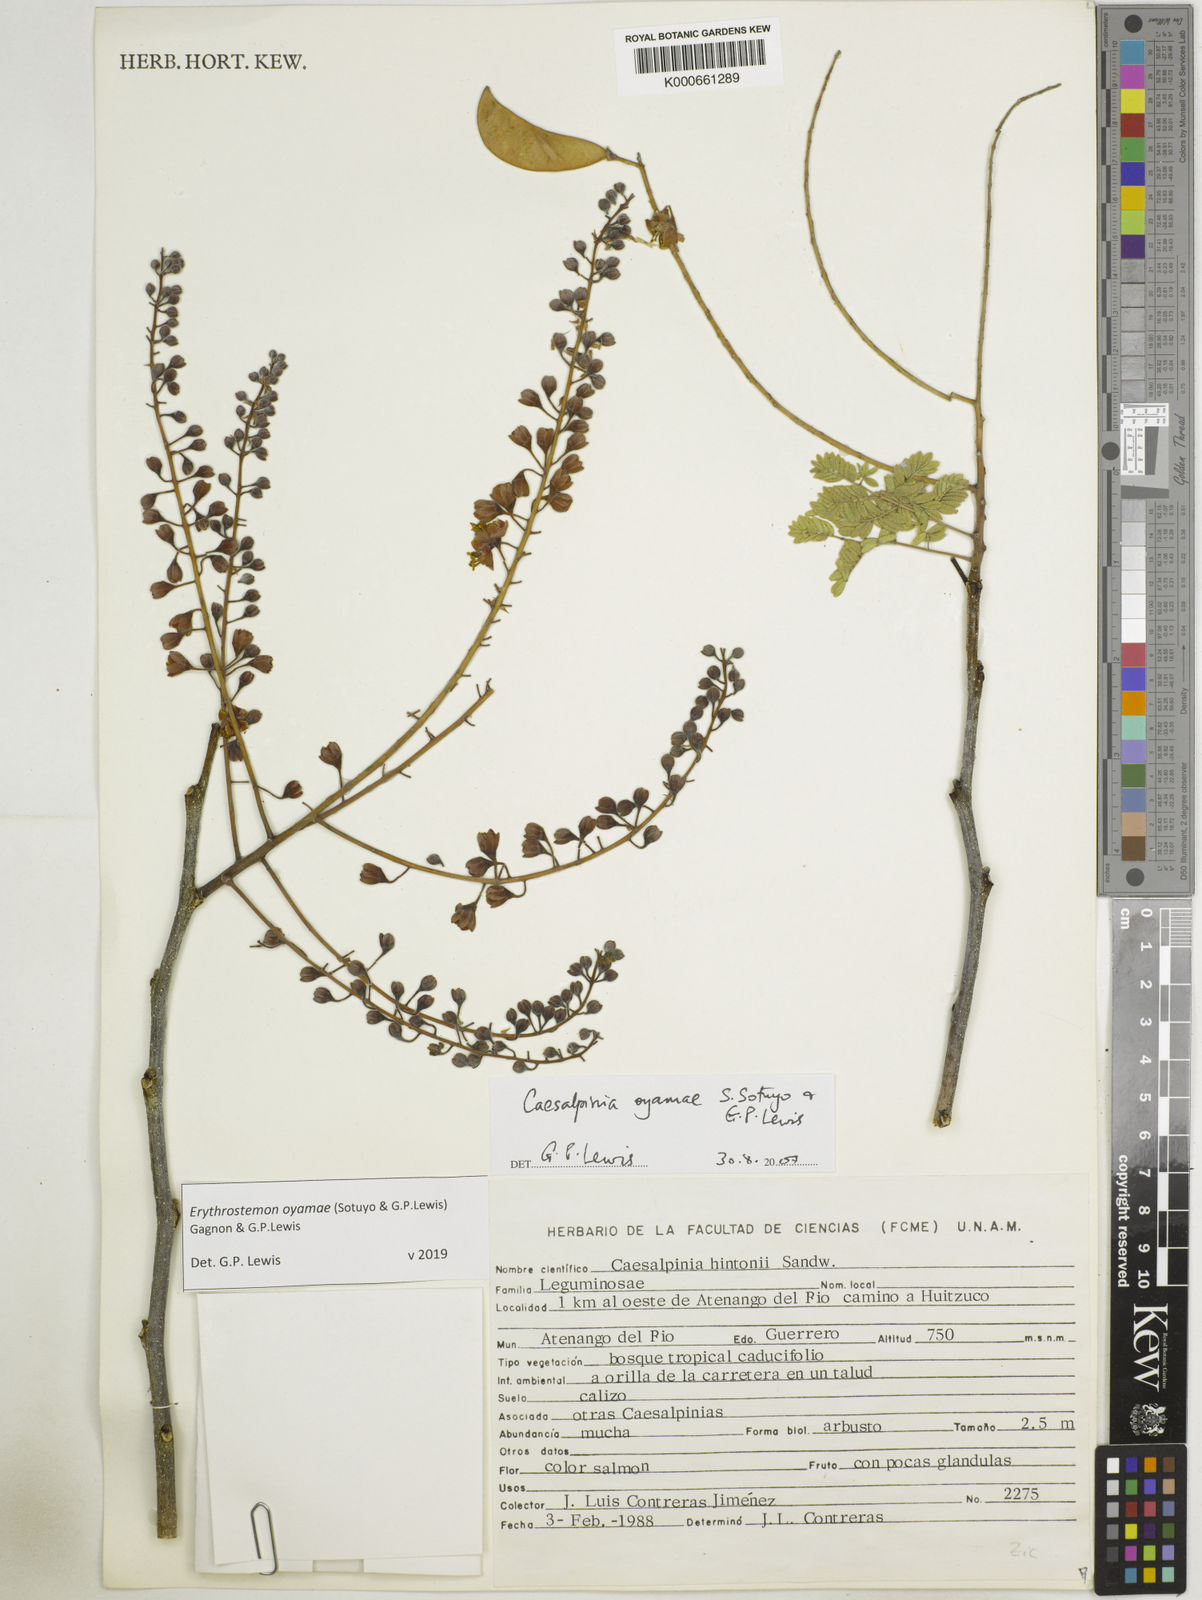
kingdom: Plantae
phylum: Tracheophyta
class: Magnoliopsida
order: Fabales
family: Fabaceae
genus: Erythrostemon
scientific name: Erythrostemon oyamae
